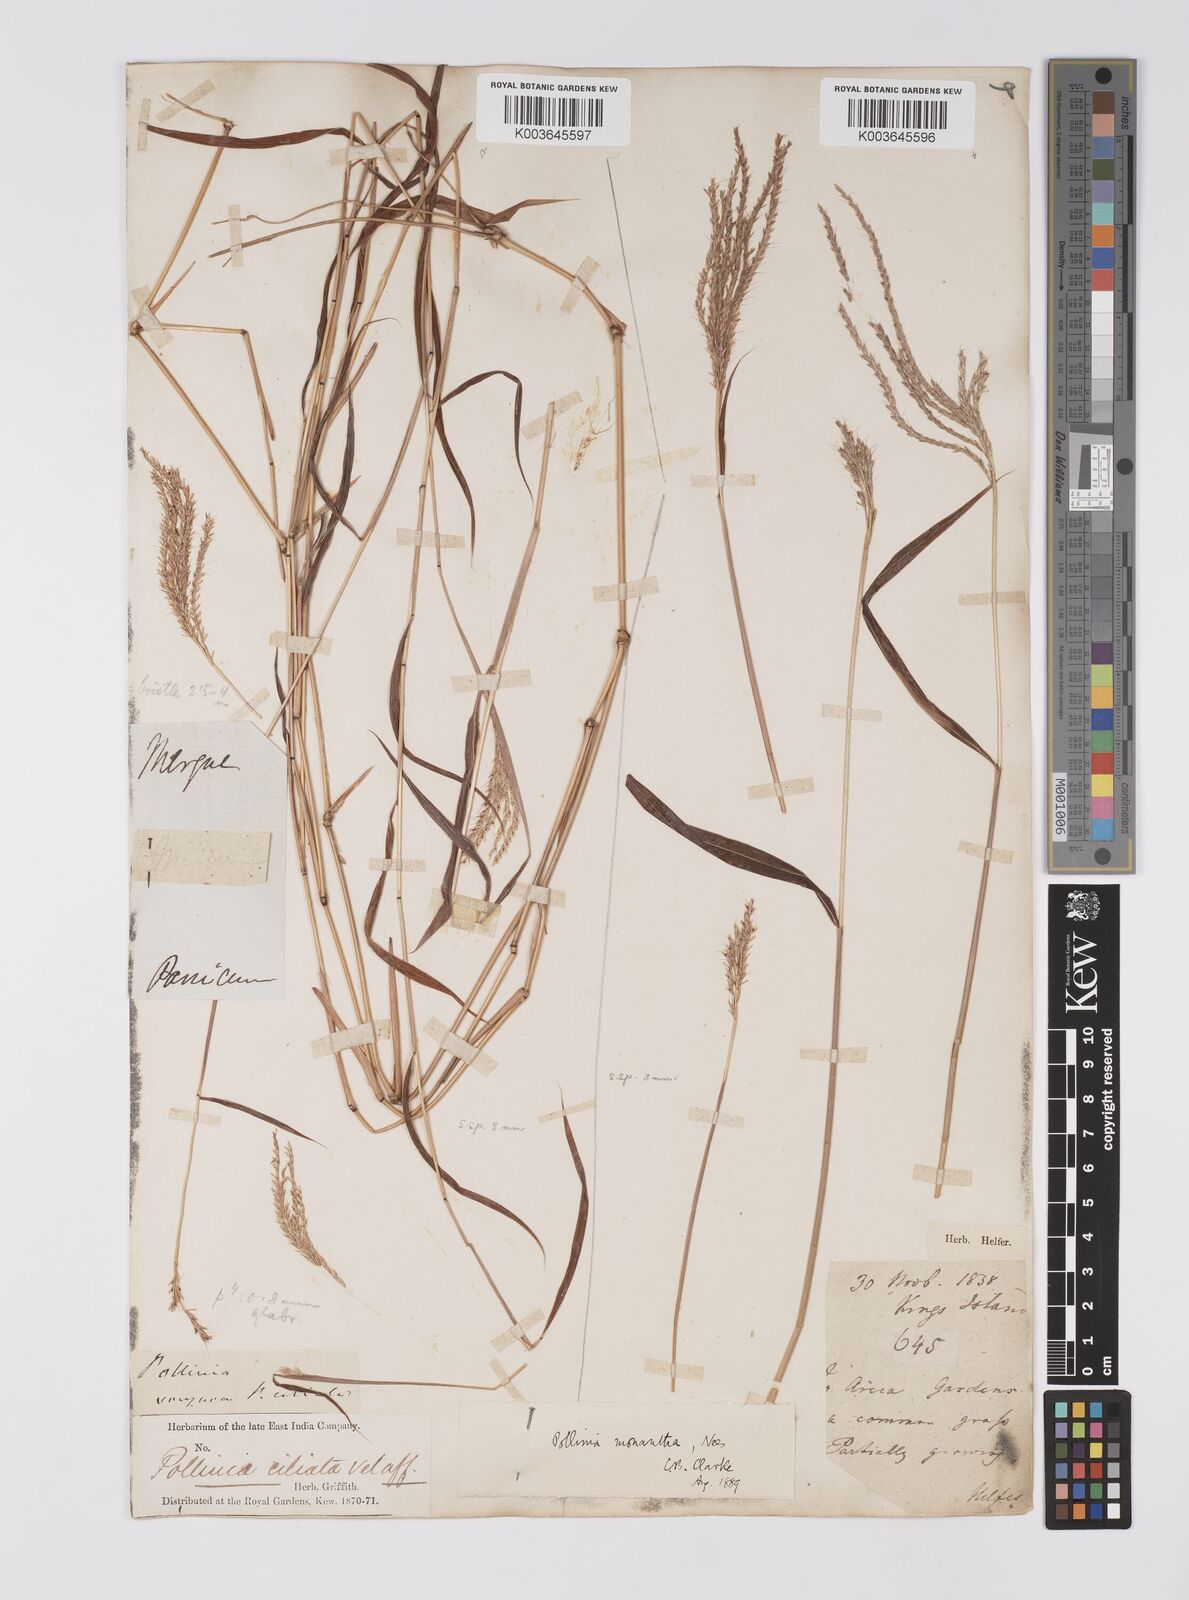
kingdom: Plantae
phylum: Tracheophyta
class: Liliopsida
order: Poales
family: Poaceae
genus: Microstegium
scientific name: Microstegium fasciculatum
